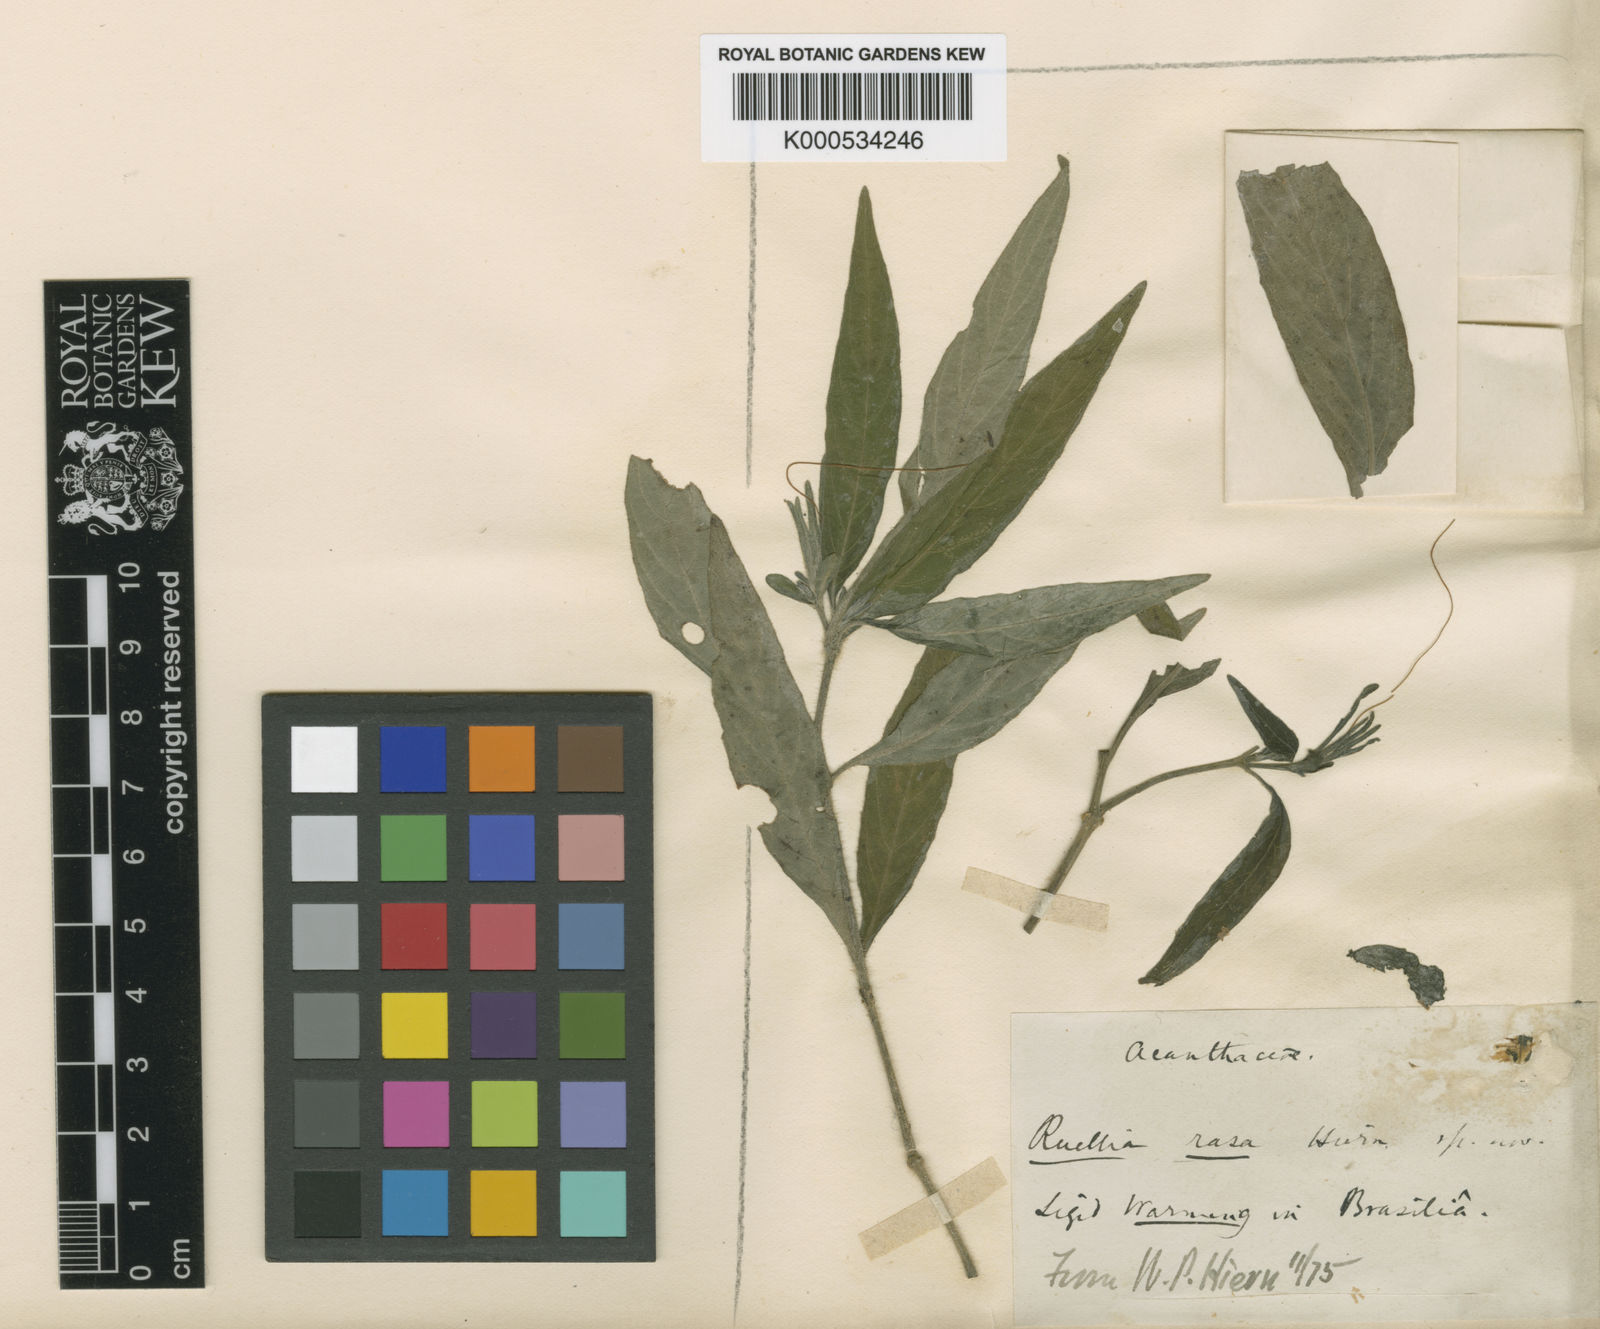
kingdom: Plantae
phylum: Tracheophyta
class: Magnoliopsida
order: Lamiales
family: Acanthaceae
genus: Ruellia
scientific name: Ruellia rasa
